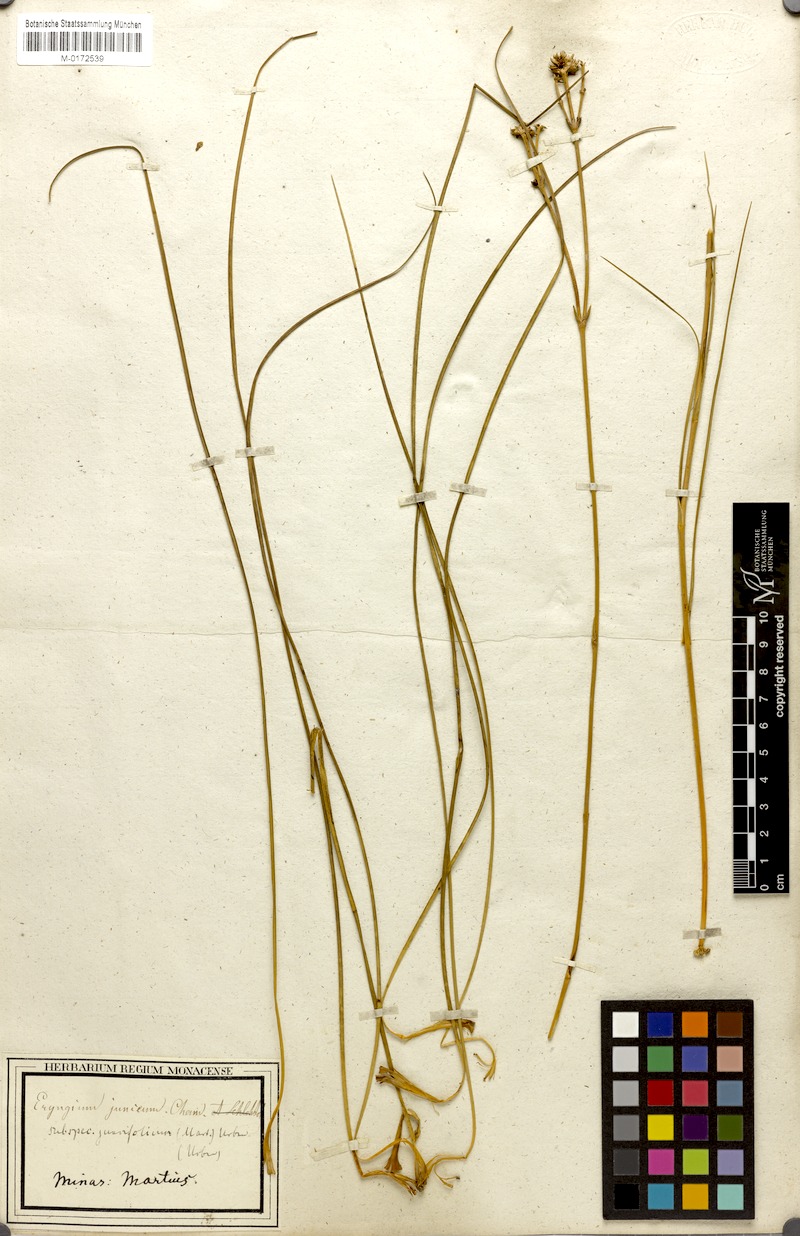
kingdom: Plantae
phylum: Tracheophyta
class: Magnoliopsida
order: Apiales
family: Apiaceae
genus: Eryngium
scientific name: Eryngium juncifolium
